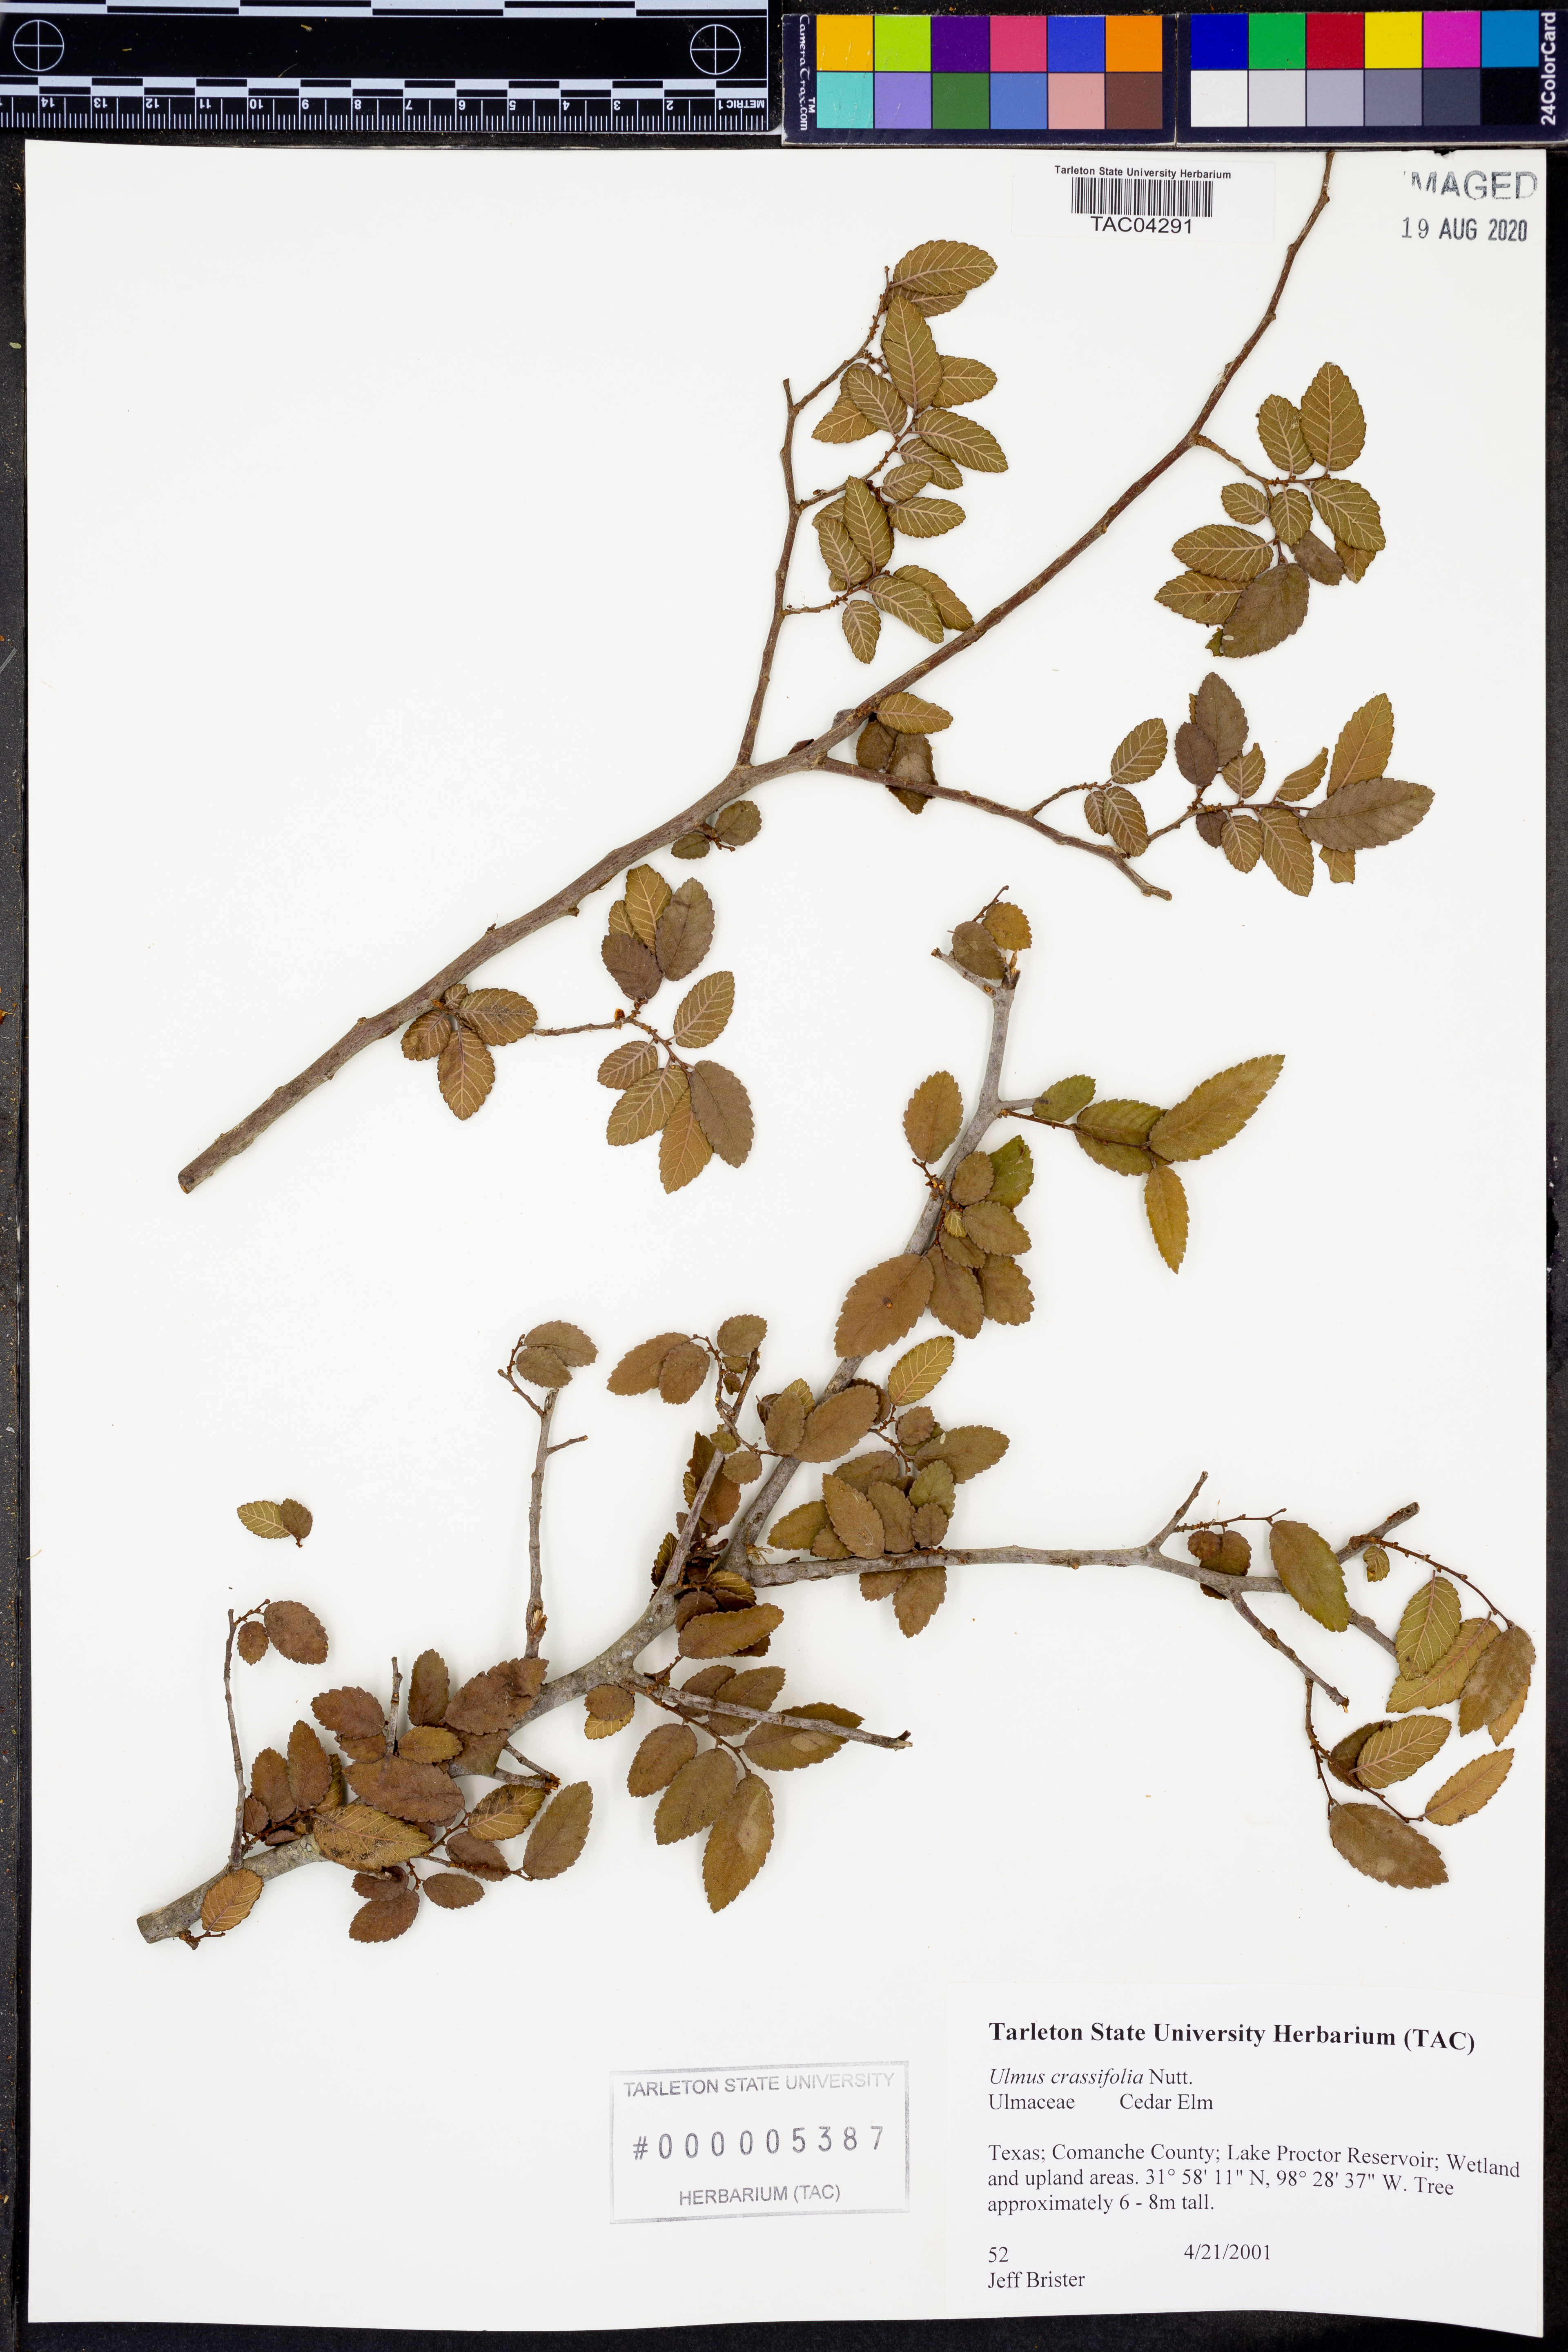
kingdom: Plantae
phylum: Tracheophyta
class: Magnoliopsida
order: Rosales
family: Ulmaceae
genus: Ulmus
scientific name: Ulmus crassifolia
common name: Basket elm
